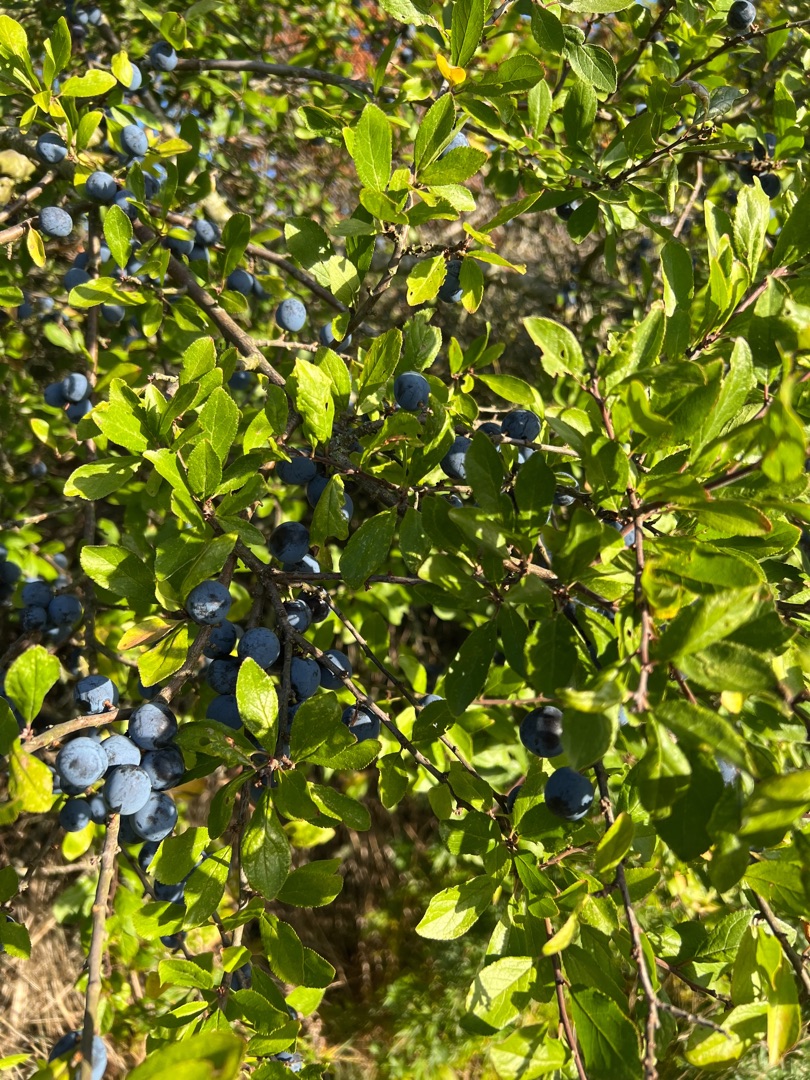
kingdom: Plantae
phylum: Tracheophyta
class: Magnoliopsida
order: Rosales
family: Rosaceae
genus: Prunus
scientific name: Prunus spinosa
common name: Slåen
